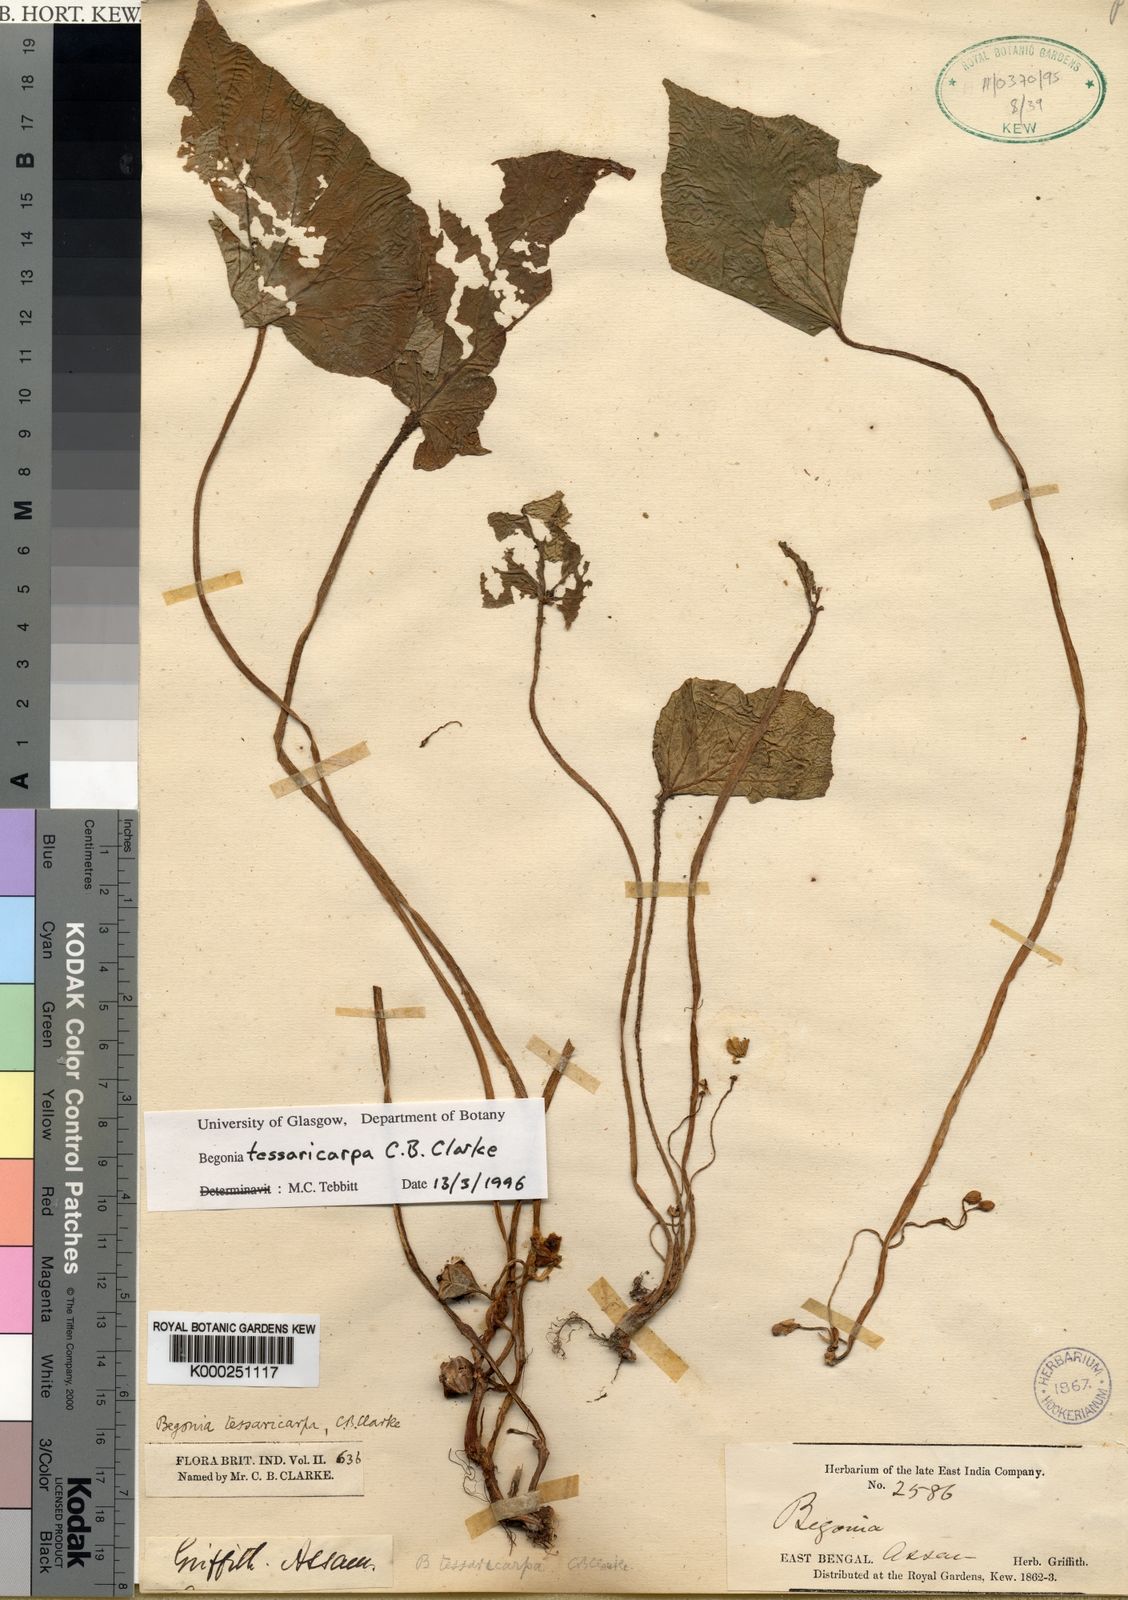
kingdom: Plantae
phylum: Tracheophyta
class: Magnoliopsida
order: Cucurbitales
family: Begoniaceae
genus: Begonia
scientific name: Begonia tessaricarpa
